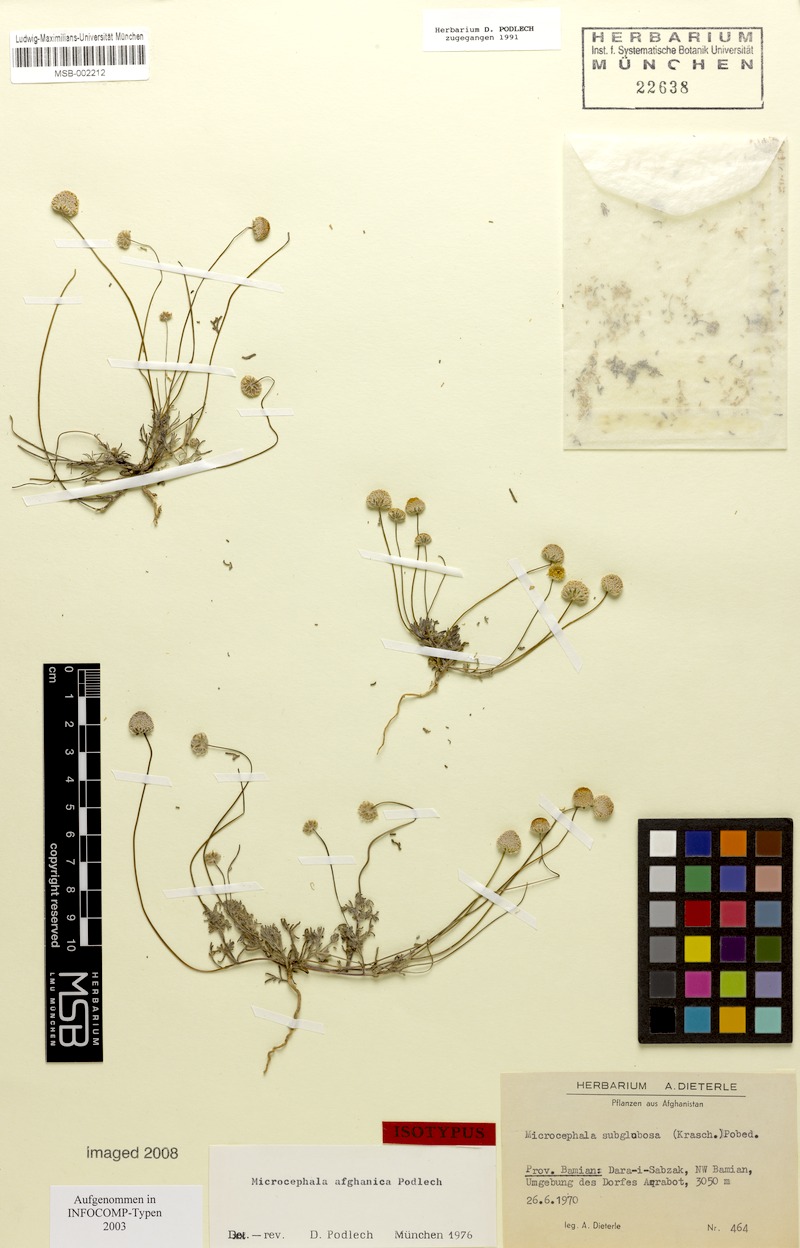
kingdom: Plantae
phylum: Tracheophyta
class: Magnoliopsida
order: Asterales
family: Asteraceae
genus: Microcephala
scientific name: Microcephala afghanica
